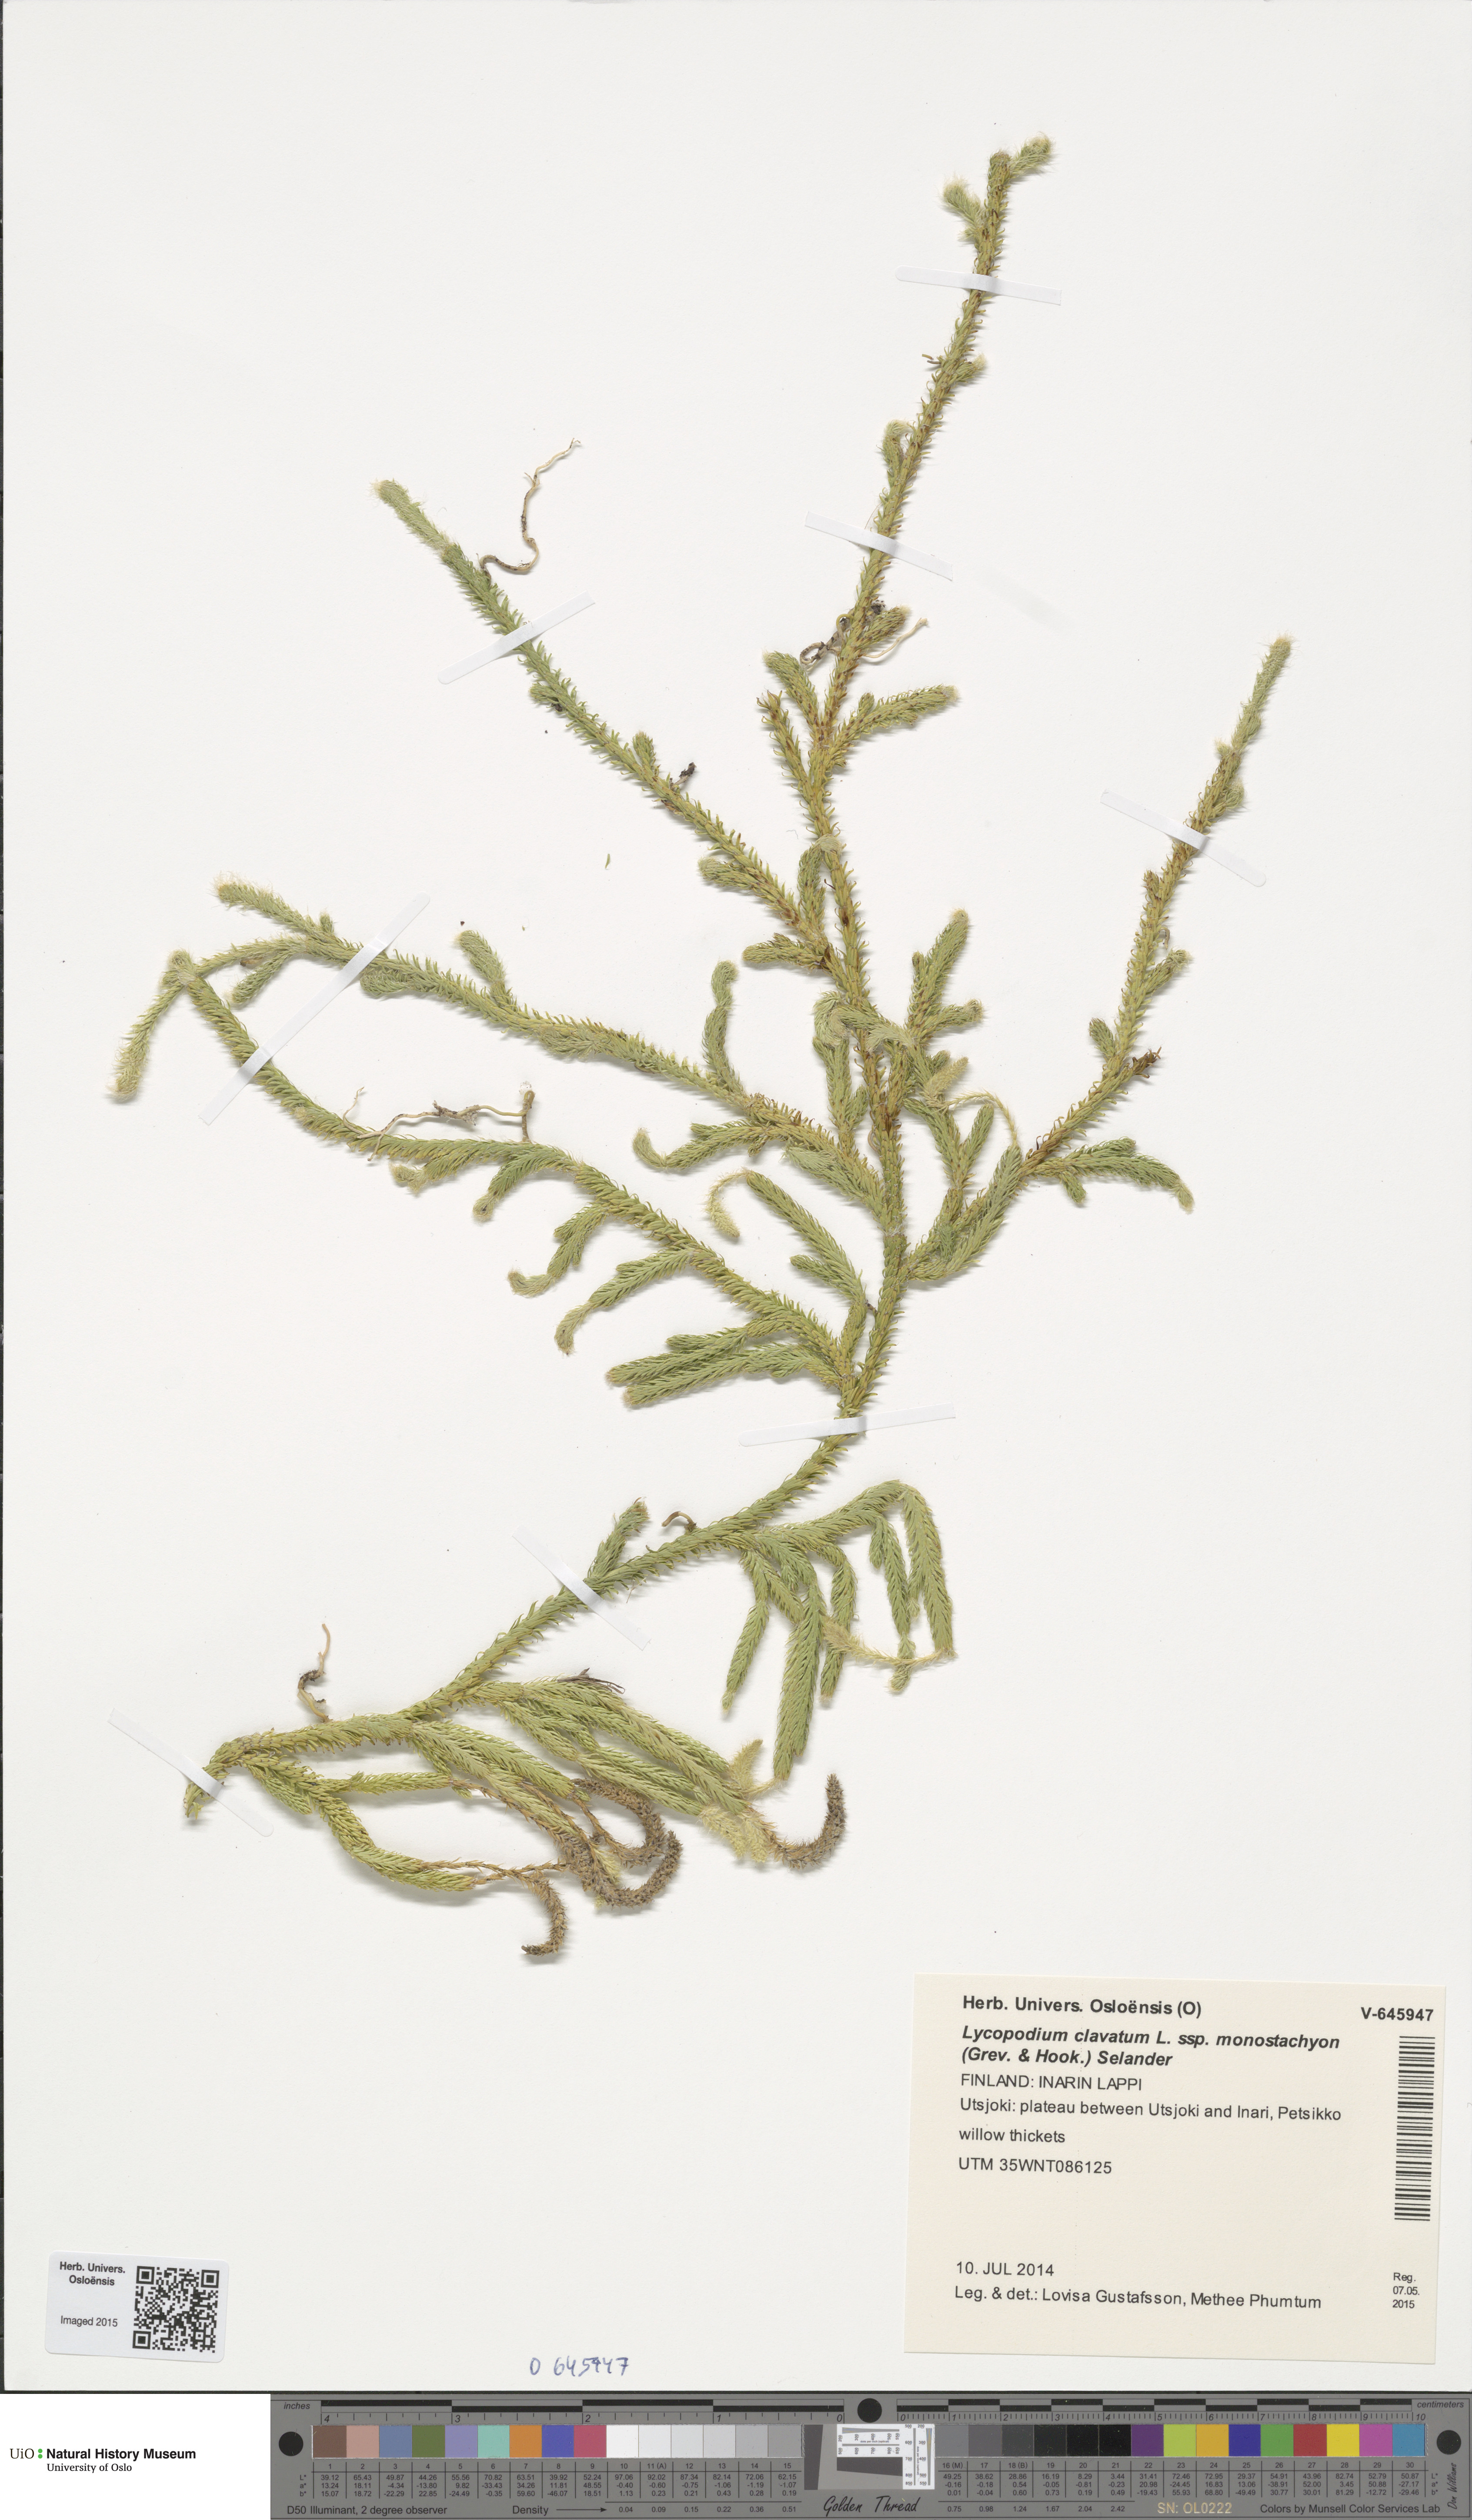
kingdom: Plantae
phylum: Tracheophyta
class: Lycopodiopsida
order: Lycopodiales
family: Lycopodiaceae
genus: Lycopodium
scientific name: Lycopodium lagopus
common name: One-cone clubmoss
